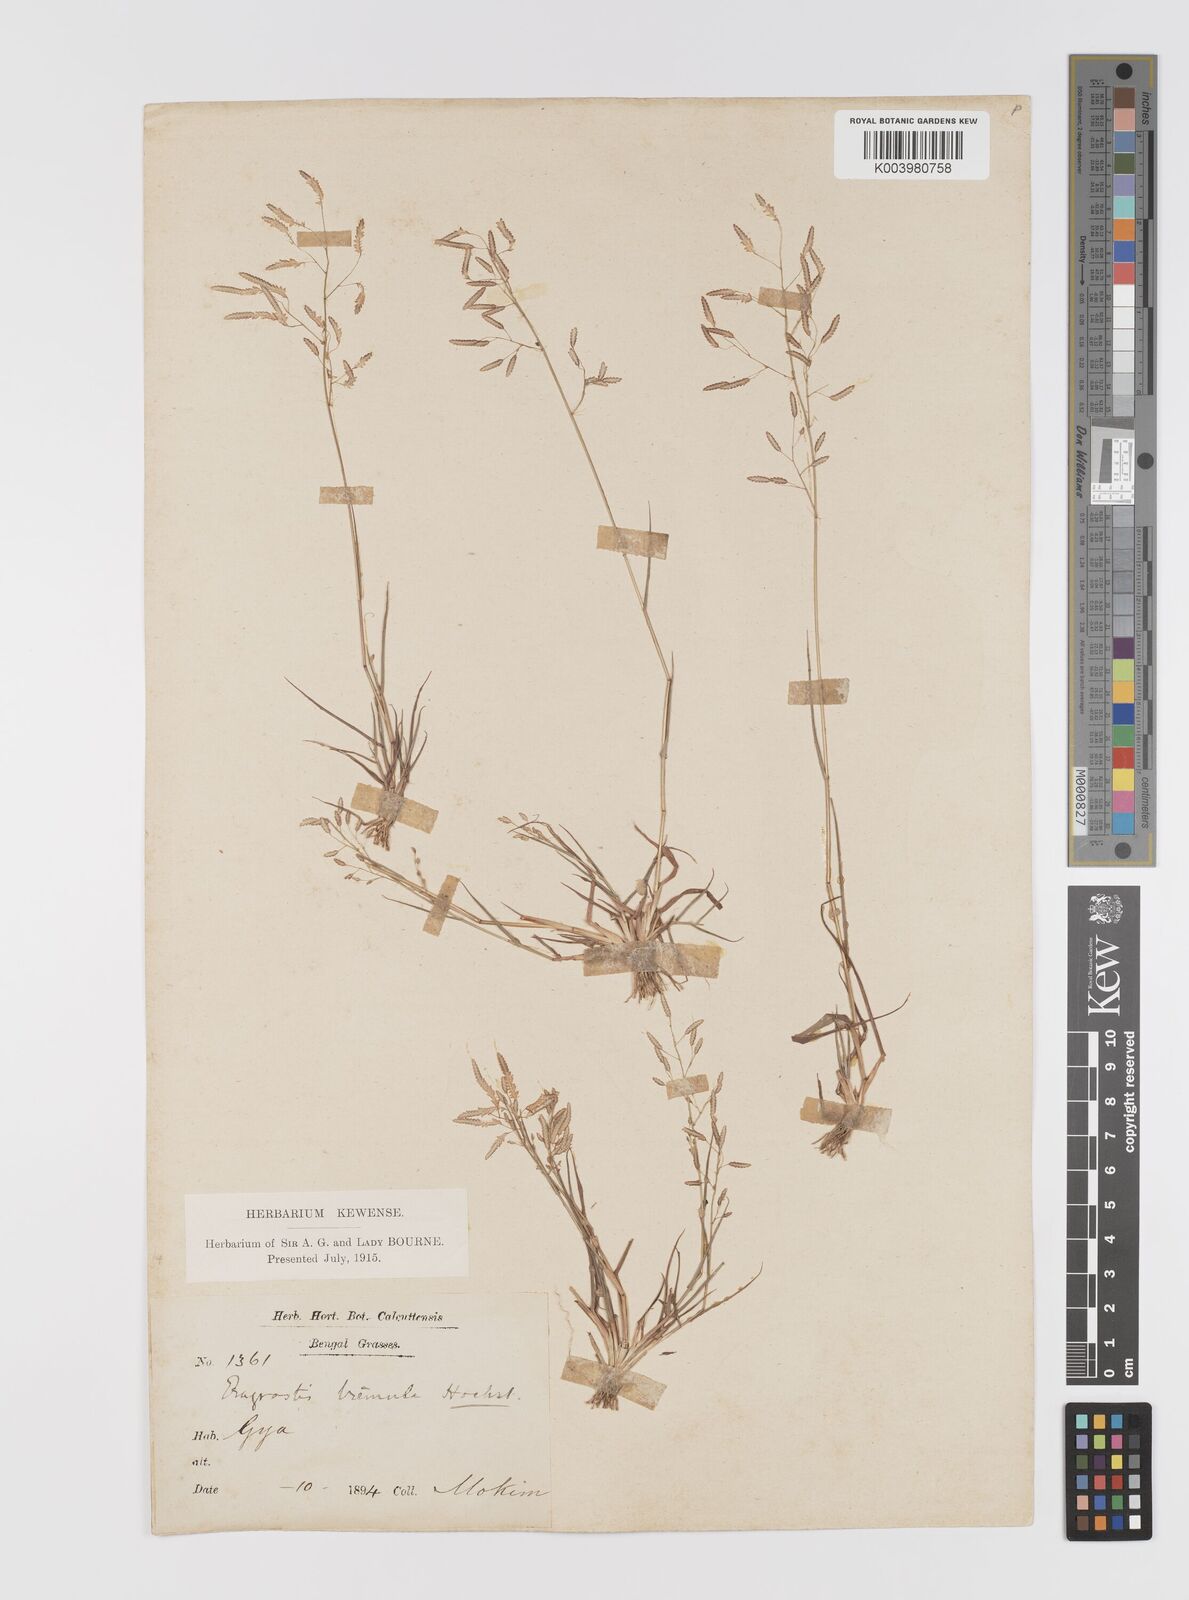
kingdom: Plantae
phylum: Tracheophyta
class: Liliopsida
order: Poales
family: Poaceae
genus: Eragrostis
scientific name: Eragrostis tremula
